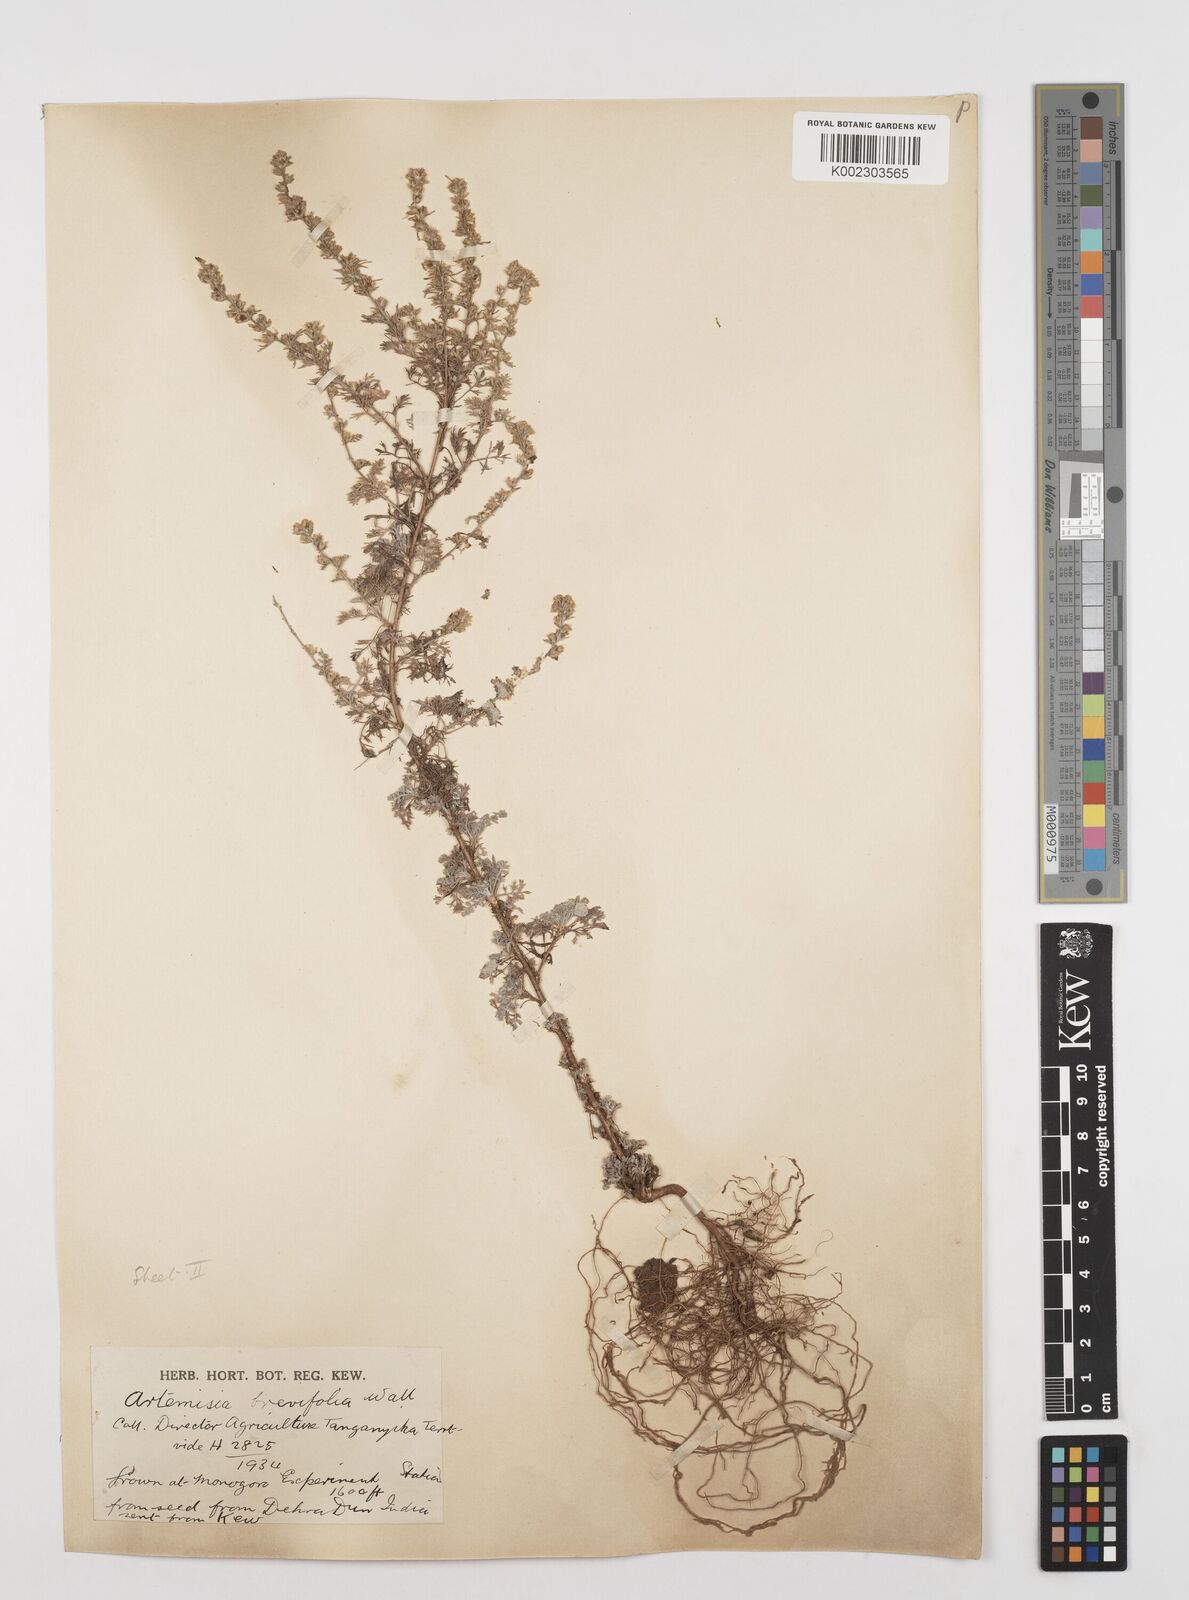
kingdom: Plantae
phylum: Tracheophyta
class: Magnoliopsida
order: Asterales
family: Asteraceae
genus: Artemisia
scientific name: Artemisia brevifolia
